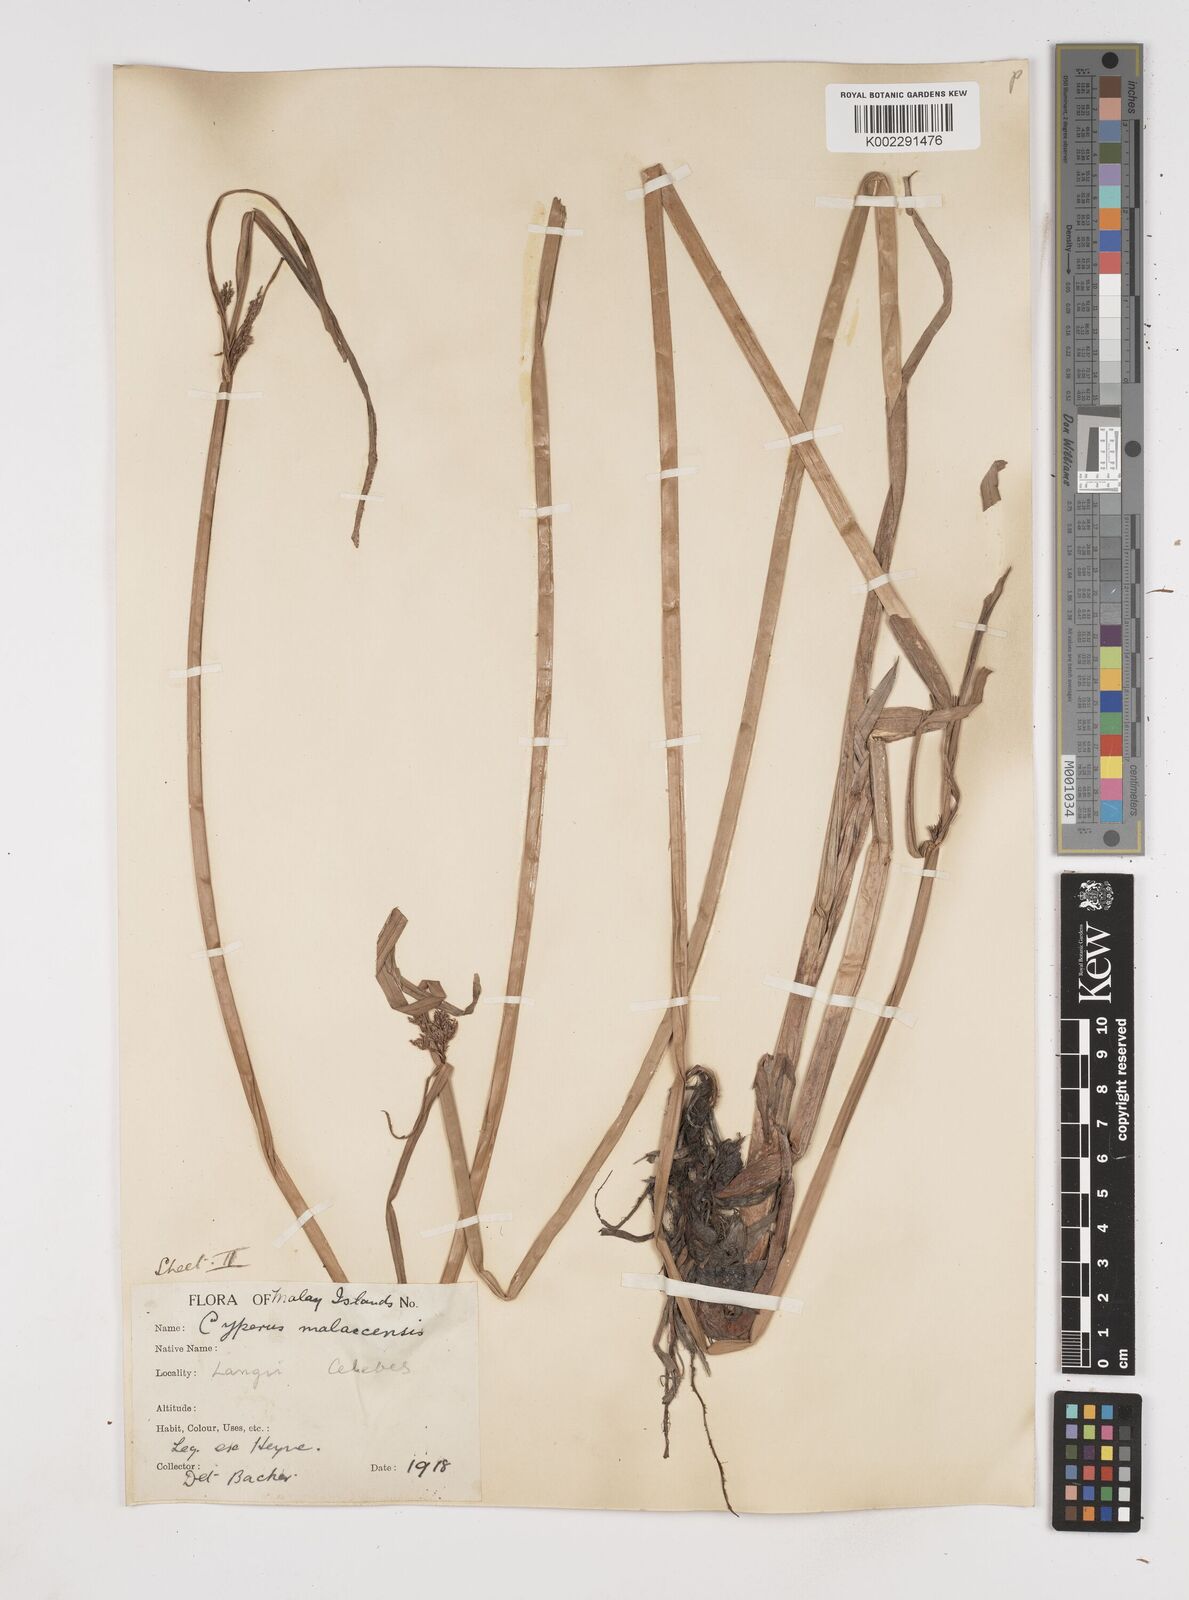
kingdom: Plantae
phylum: Tracheophyta
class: Liliopsida
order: Poales
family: Cyperaceae
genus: Cyperus
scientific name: Cyperus malaccensis
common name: Shichito matgrass
